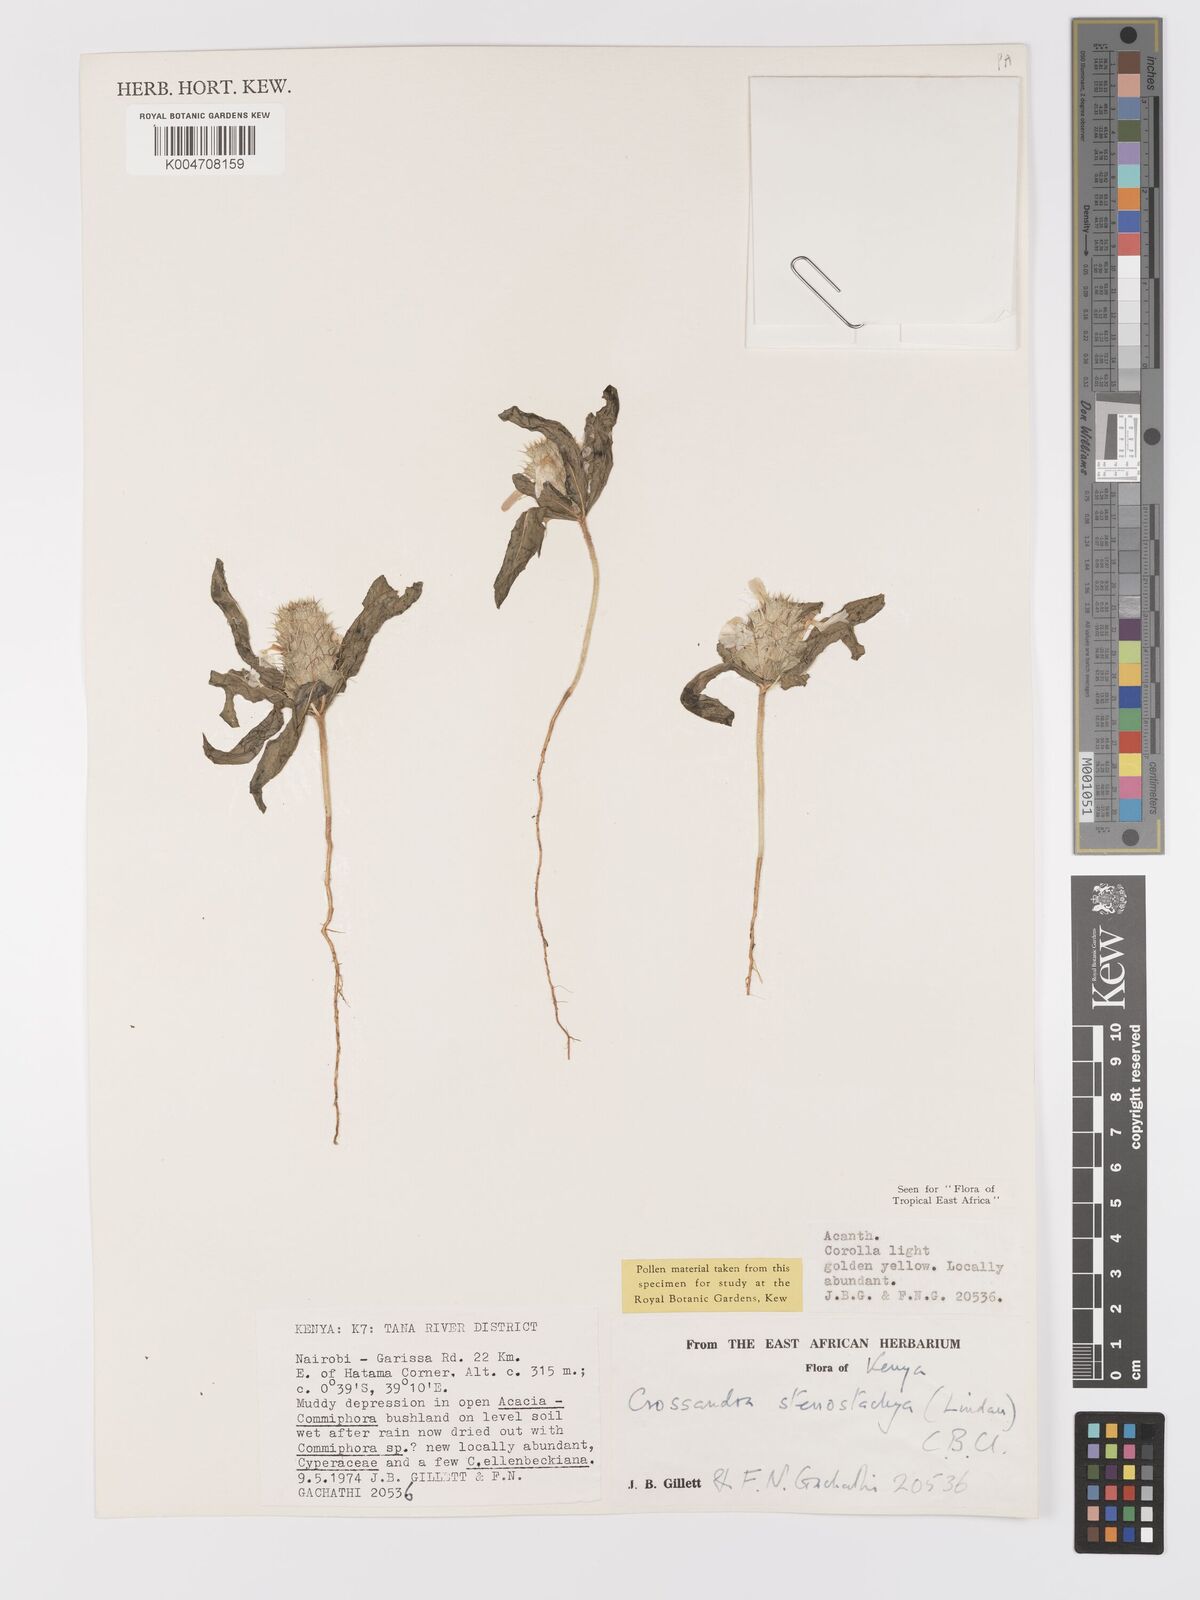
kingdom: Plantae
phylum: Tracheophyta
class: Magnoliopsida
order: Lamiales
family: Acanthaceae
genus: Crossandra
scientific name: Crossandra stenostachya
